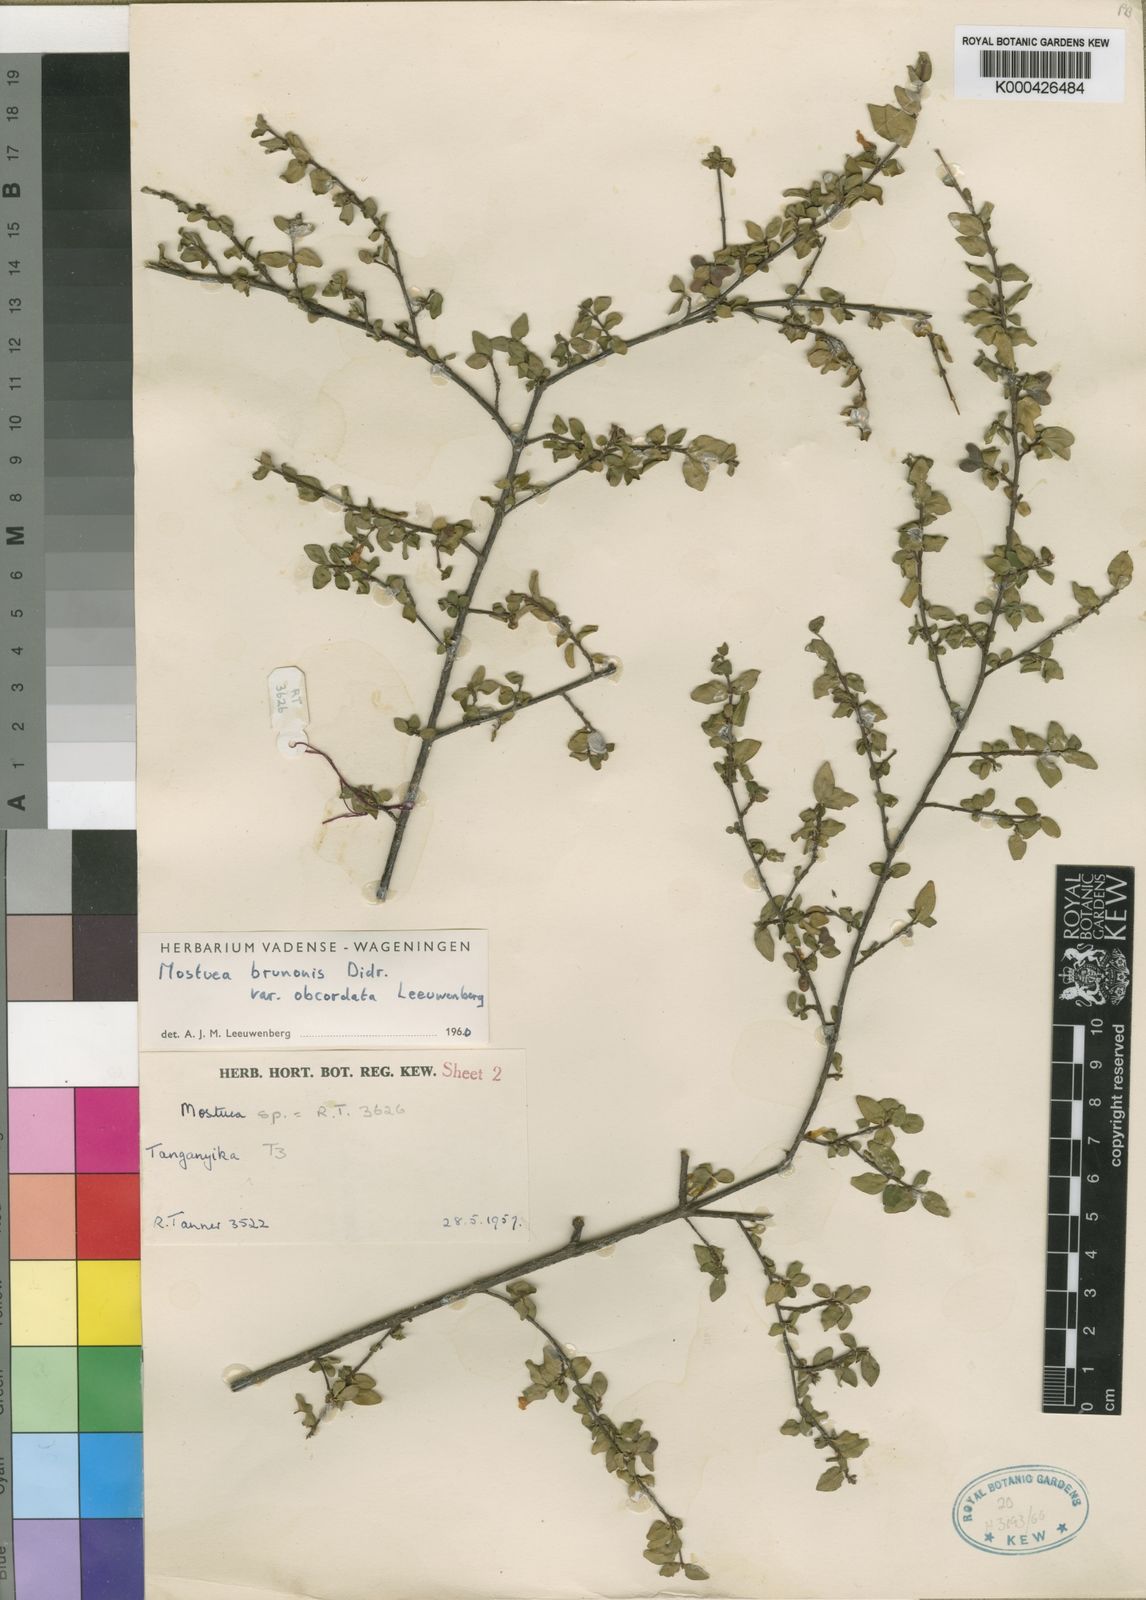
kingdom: Plantae
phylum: Tracheophyta
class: Magnoliopsida
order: Gentianales
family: Gelsemiaceae
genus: Mostuea
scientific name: Mostuea brunonis
